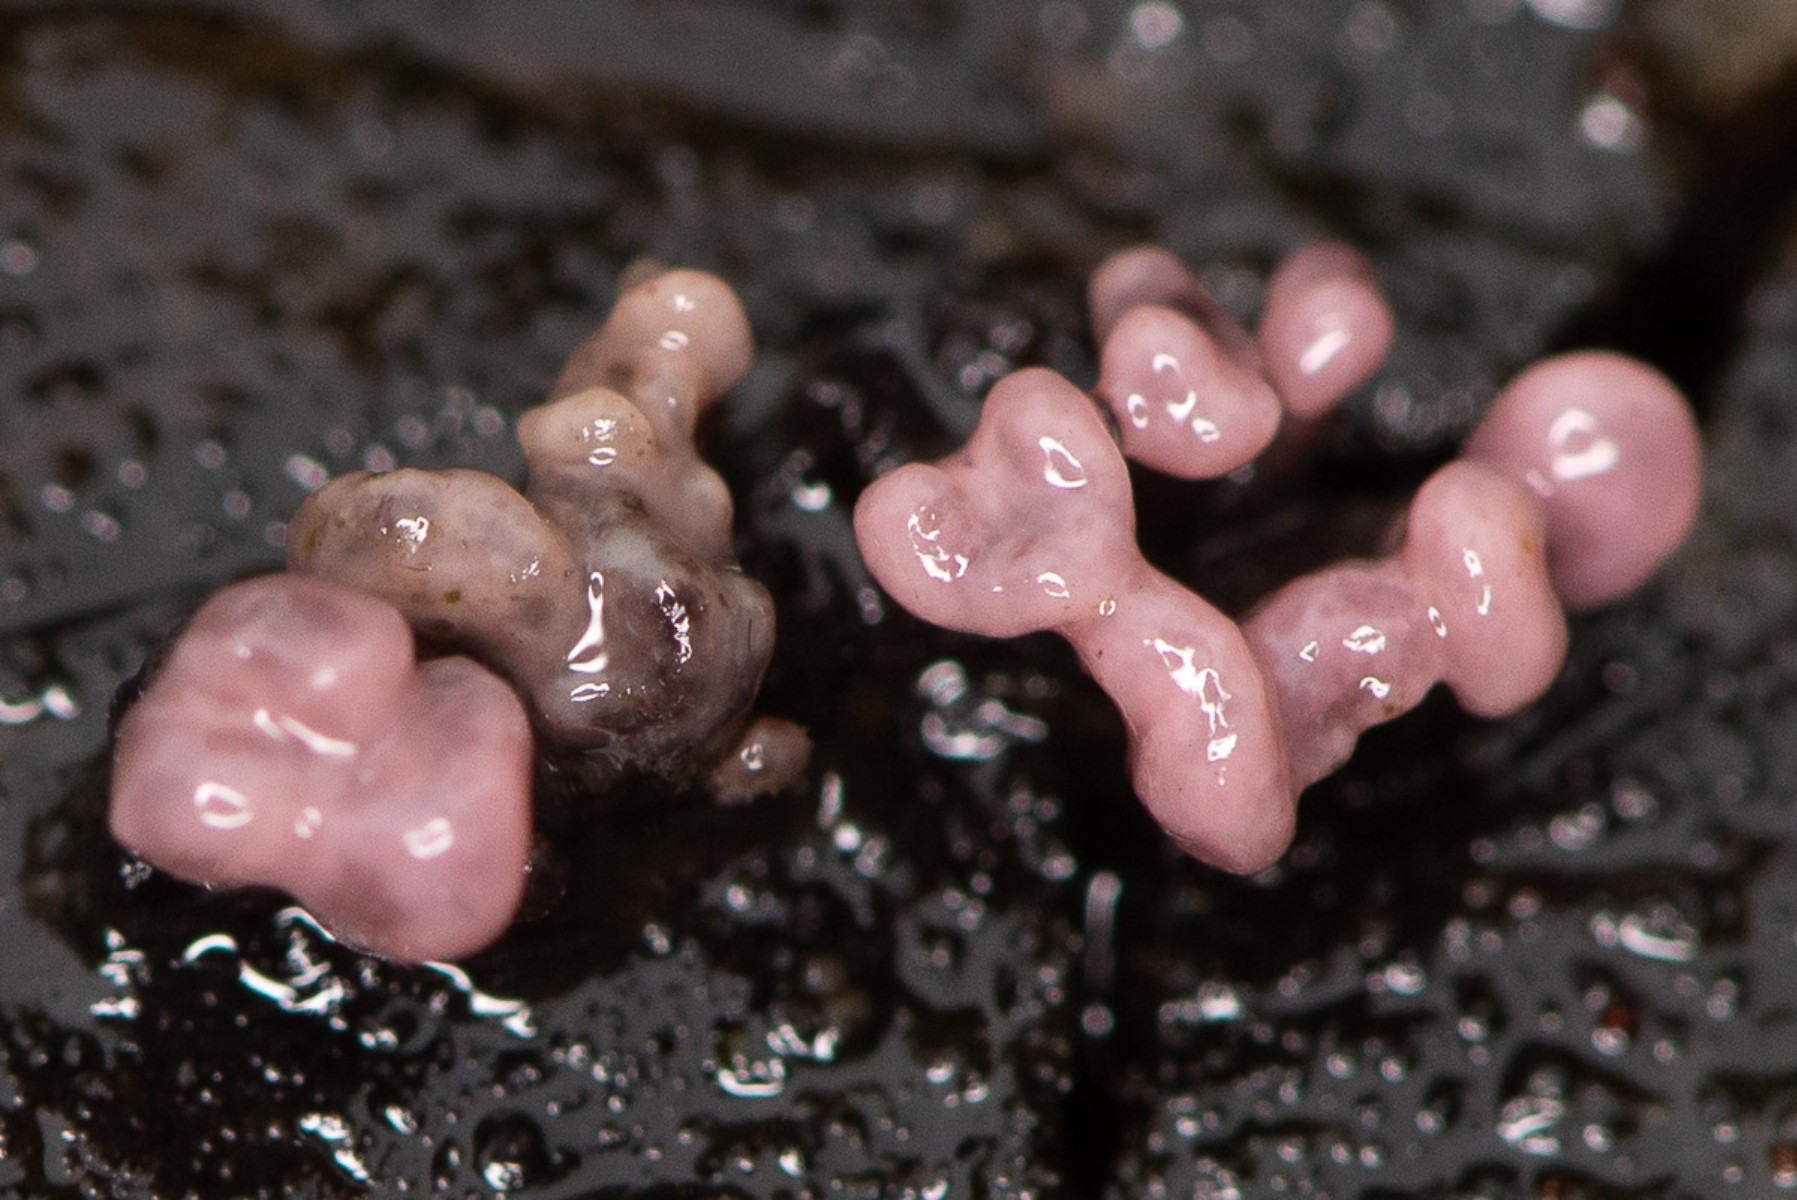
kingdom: Fungi
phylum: Ascomycota
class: Leotiomycetes
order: Helotiales
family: Gelatinodiscaceae
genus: Ascocoryne
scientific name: Ascocoryne sarcoides
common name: rødlilla sejskive
